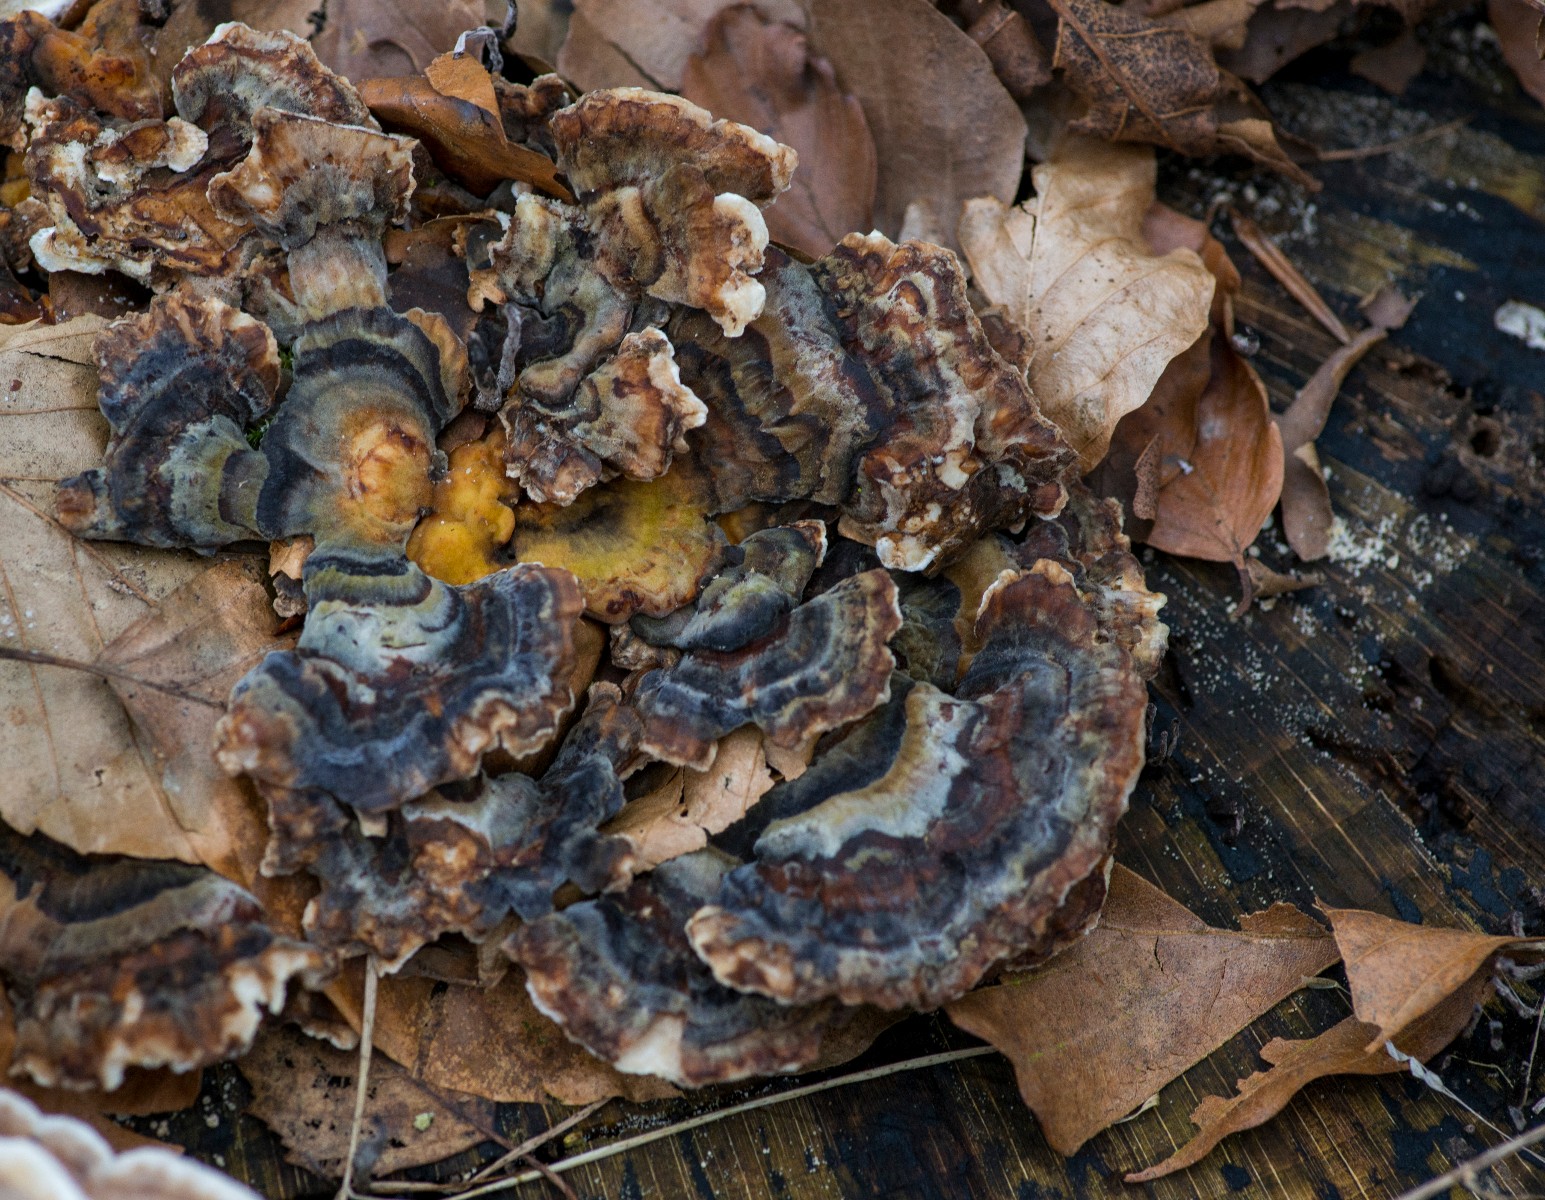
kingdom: Fungi
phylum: Basidiomycota
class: Agaricomycetes
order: Polyporales
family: Polyporaceae
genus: Trametes
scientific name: Trametes versicolor
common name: broget læderporesvamp
